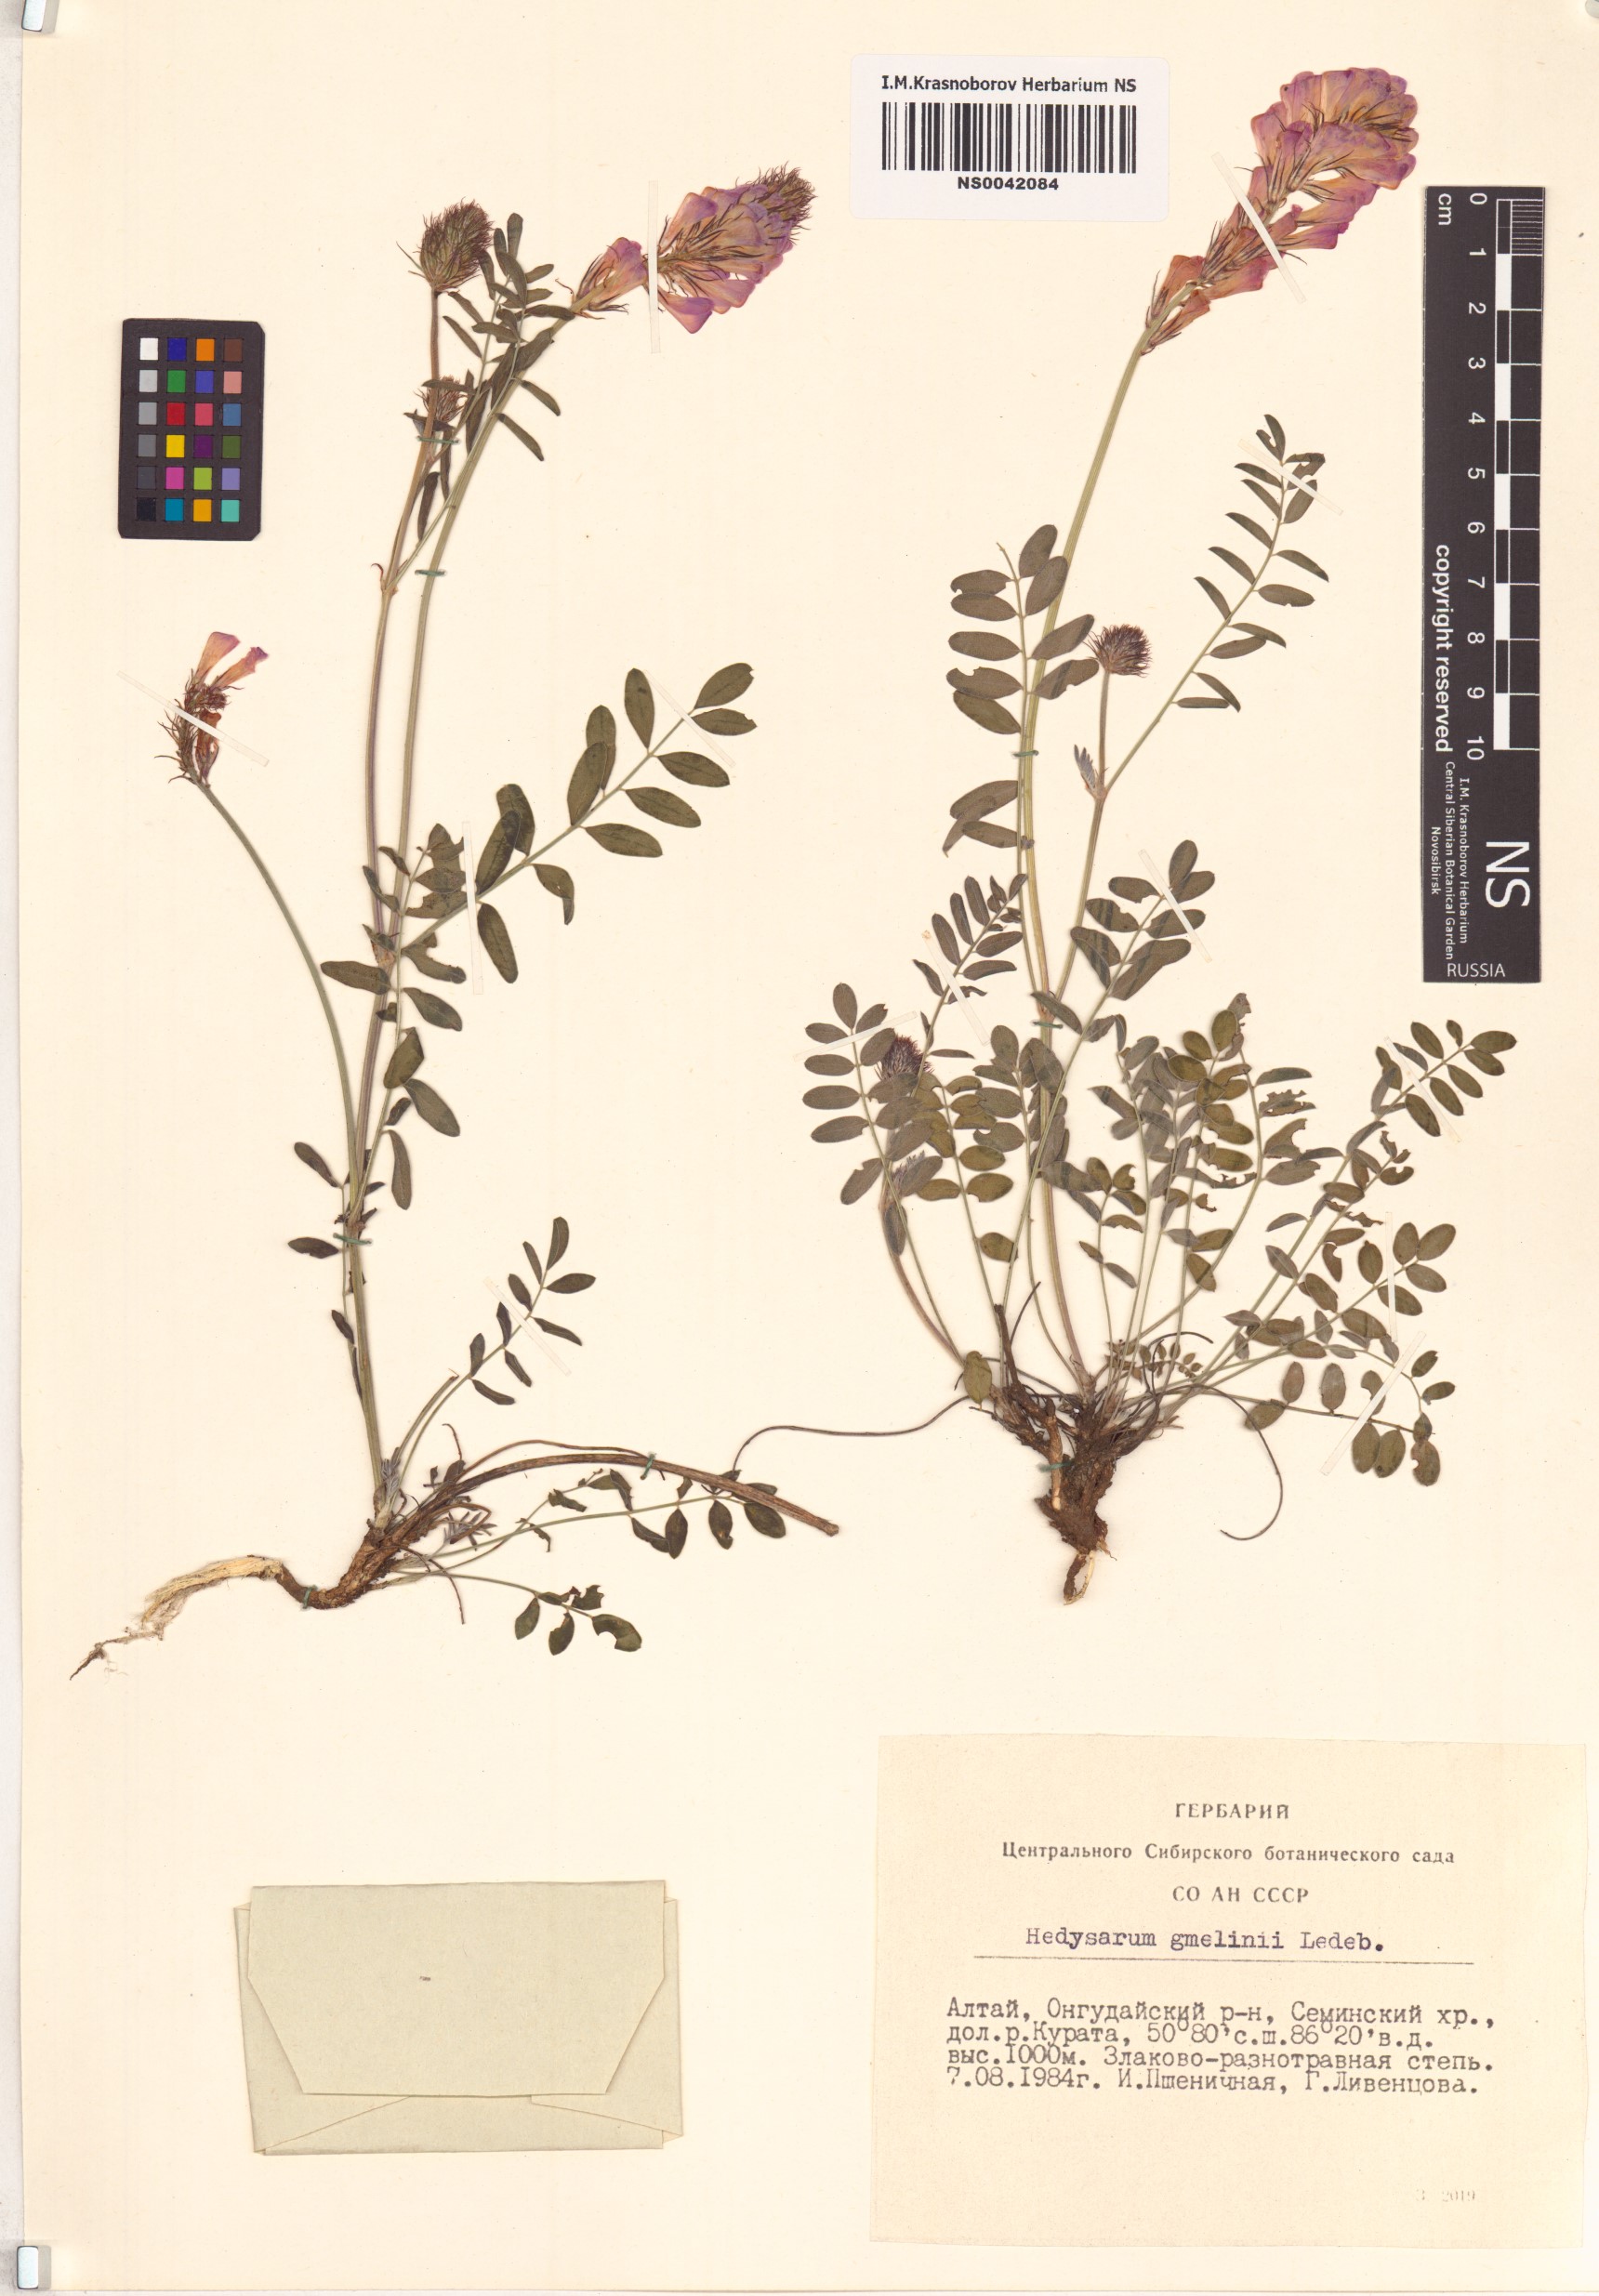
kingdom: Plantae
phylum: Tracheophyta
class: Magnoliopsida
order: Fabales
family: Fabaceae
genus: Hedysarum
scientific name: Hedysarum gmelinii
